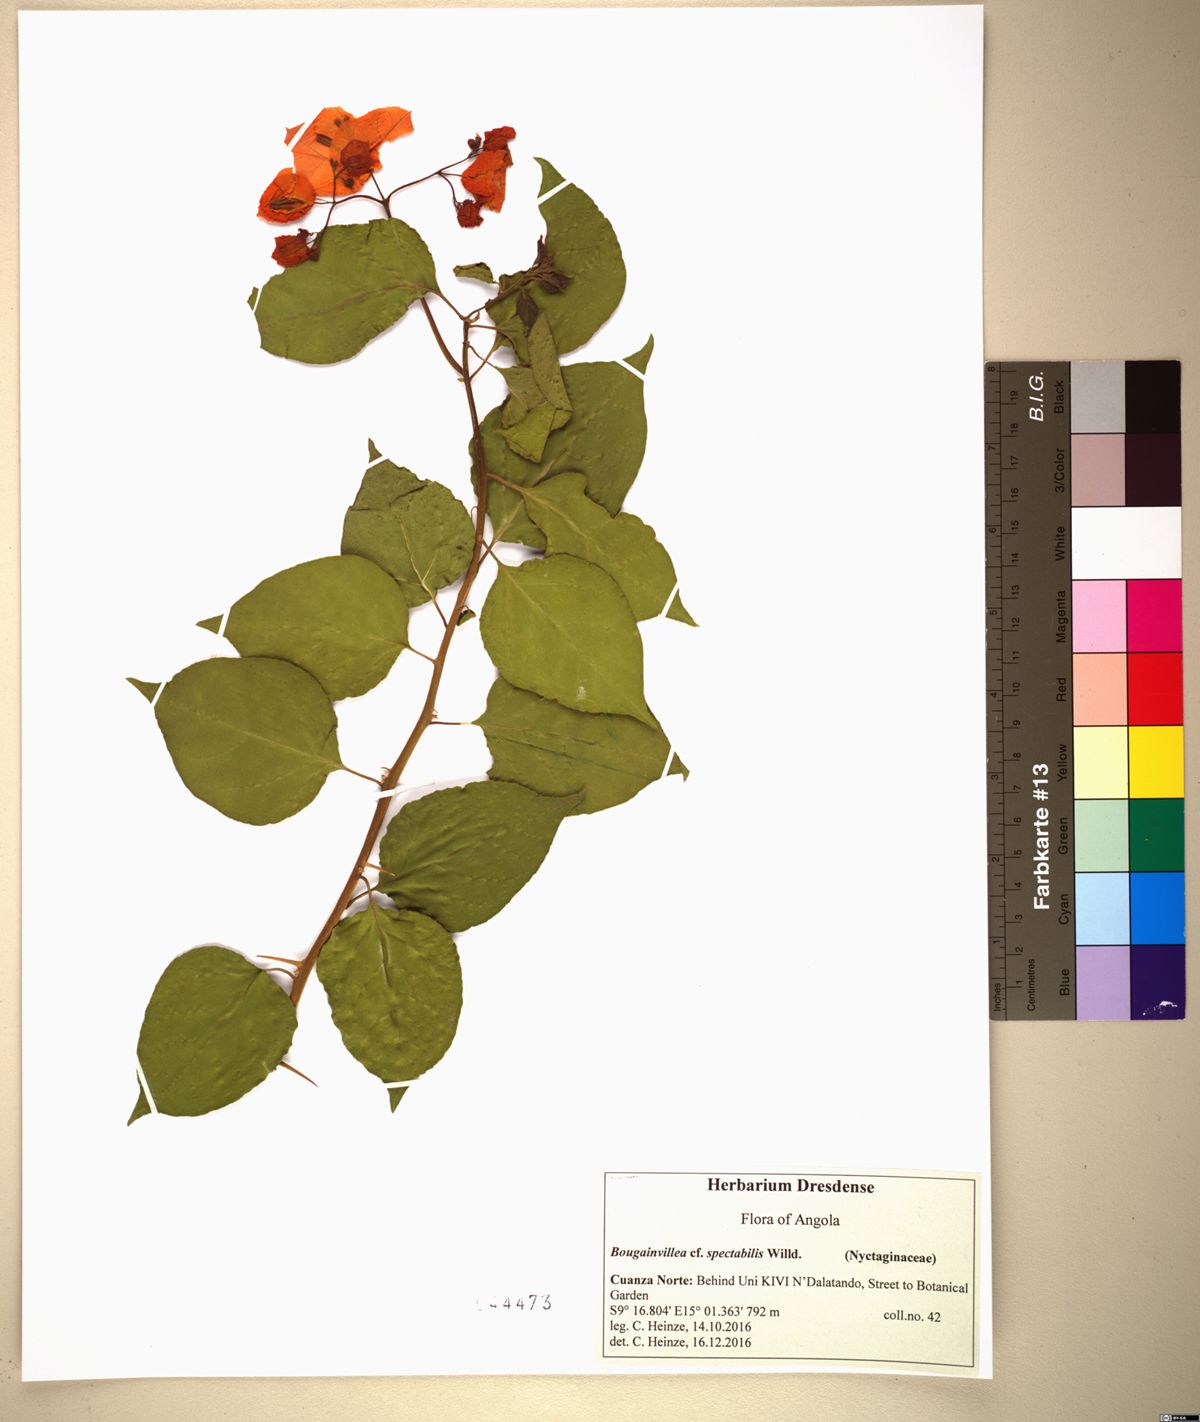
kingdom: Plantae
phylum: Tracheophyta
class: Magnoliopsida
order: Caryophyllales
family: Nyctaginaceae
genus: Bougainvillea
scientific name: Bougainvillea spectabilis
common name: Great bougainvillea
